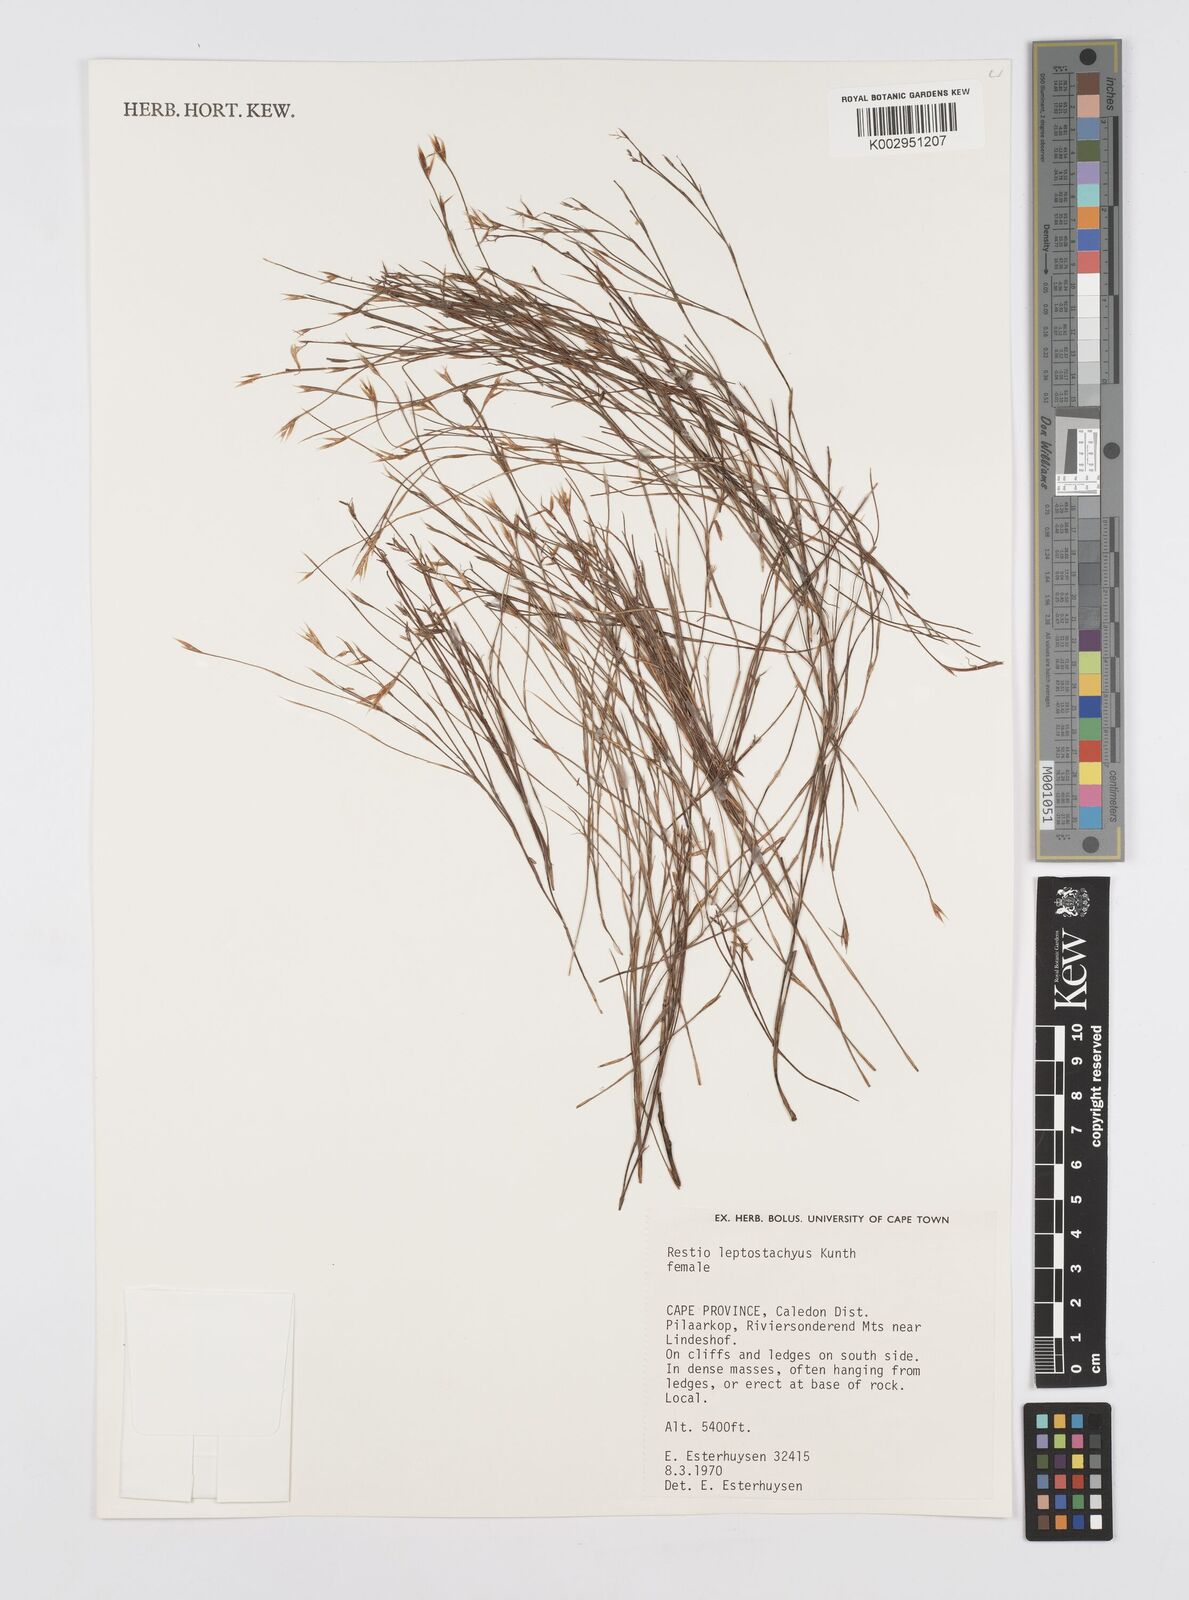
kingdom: Plantae
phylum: Tracheophyta
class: Liliopsida
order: Poales
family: Restionaceae
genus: Restio
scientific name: Restio leptostachyus
